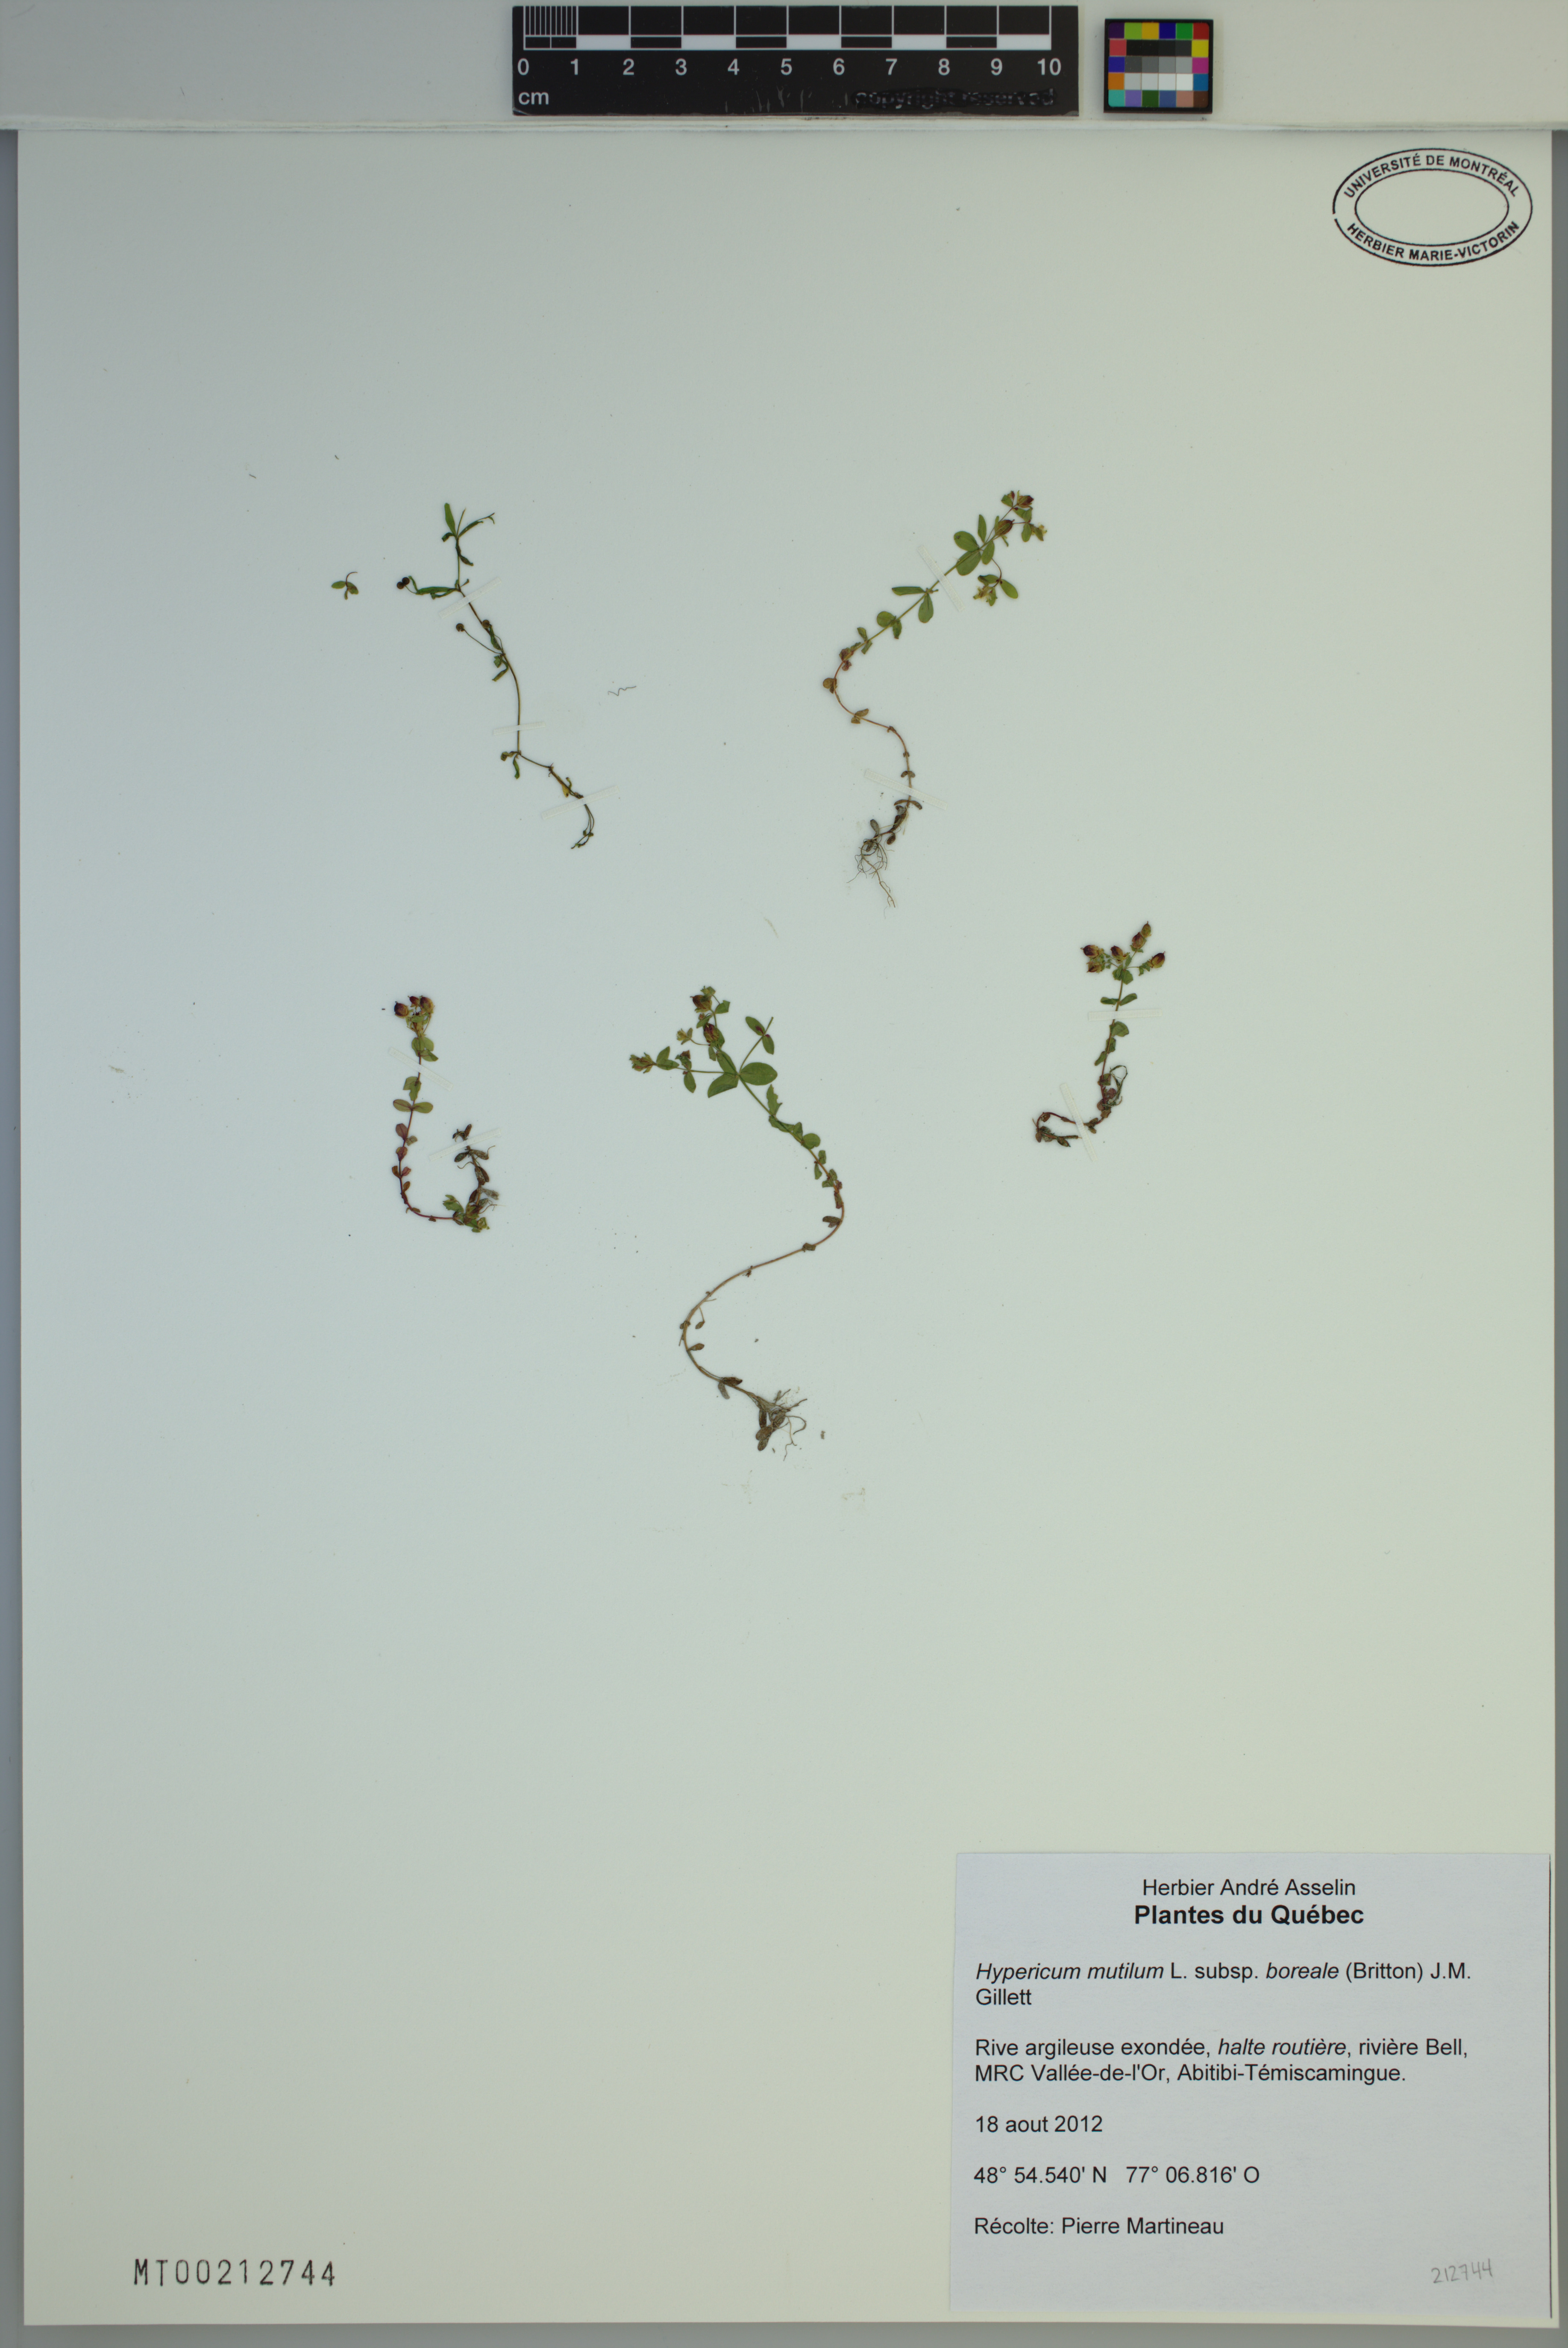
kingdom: Plantae
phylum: Tracheophyta
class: Magnoliopsida
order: Malpighiales
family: Hypericaceae
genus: Hypericum
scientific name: Hypericum boreale
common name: Northern bog st. john's-wort
